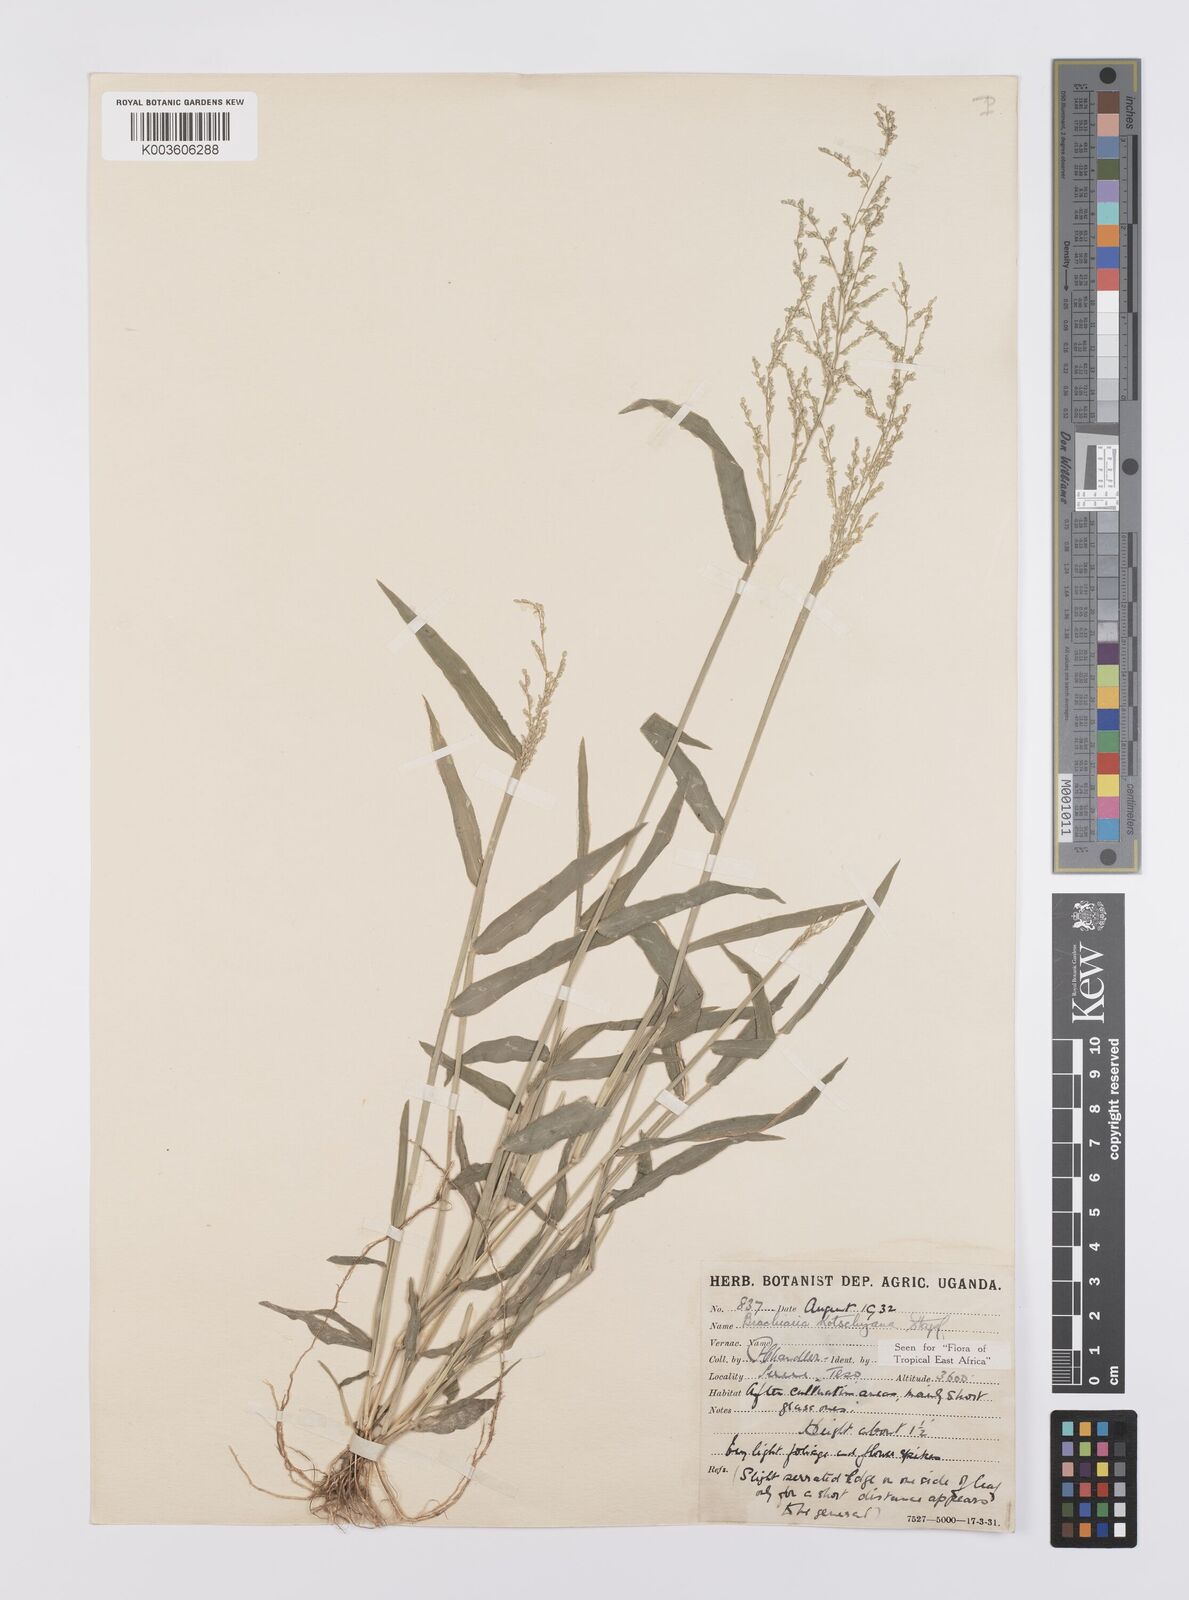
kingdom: Plantae
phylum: Tracheophyta
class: Liliopsida
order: Poales
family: Poaceae
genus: Urochloa
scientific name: Urochloa comata
